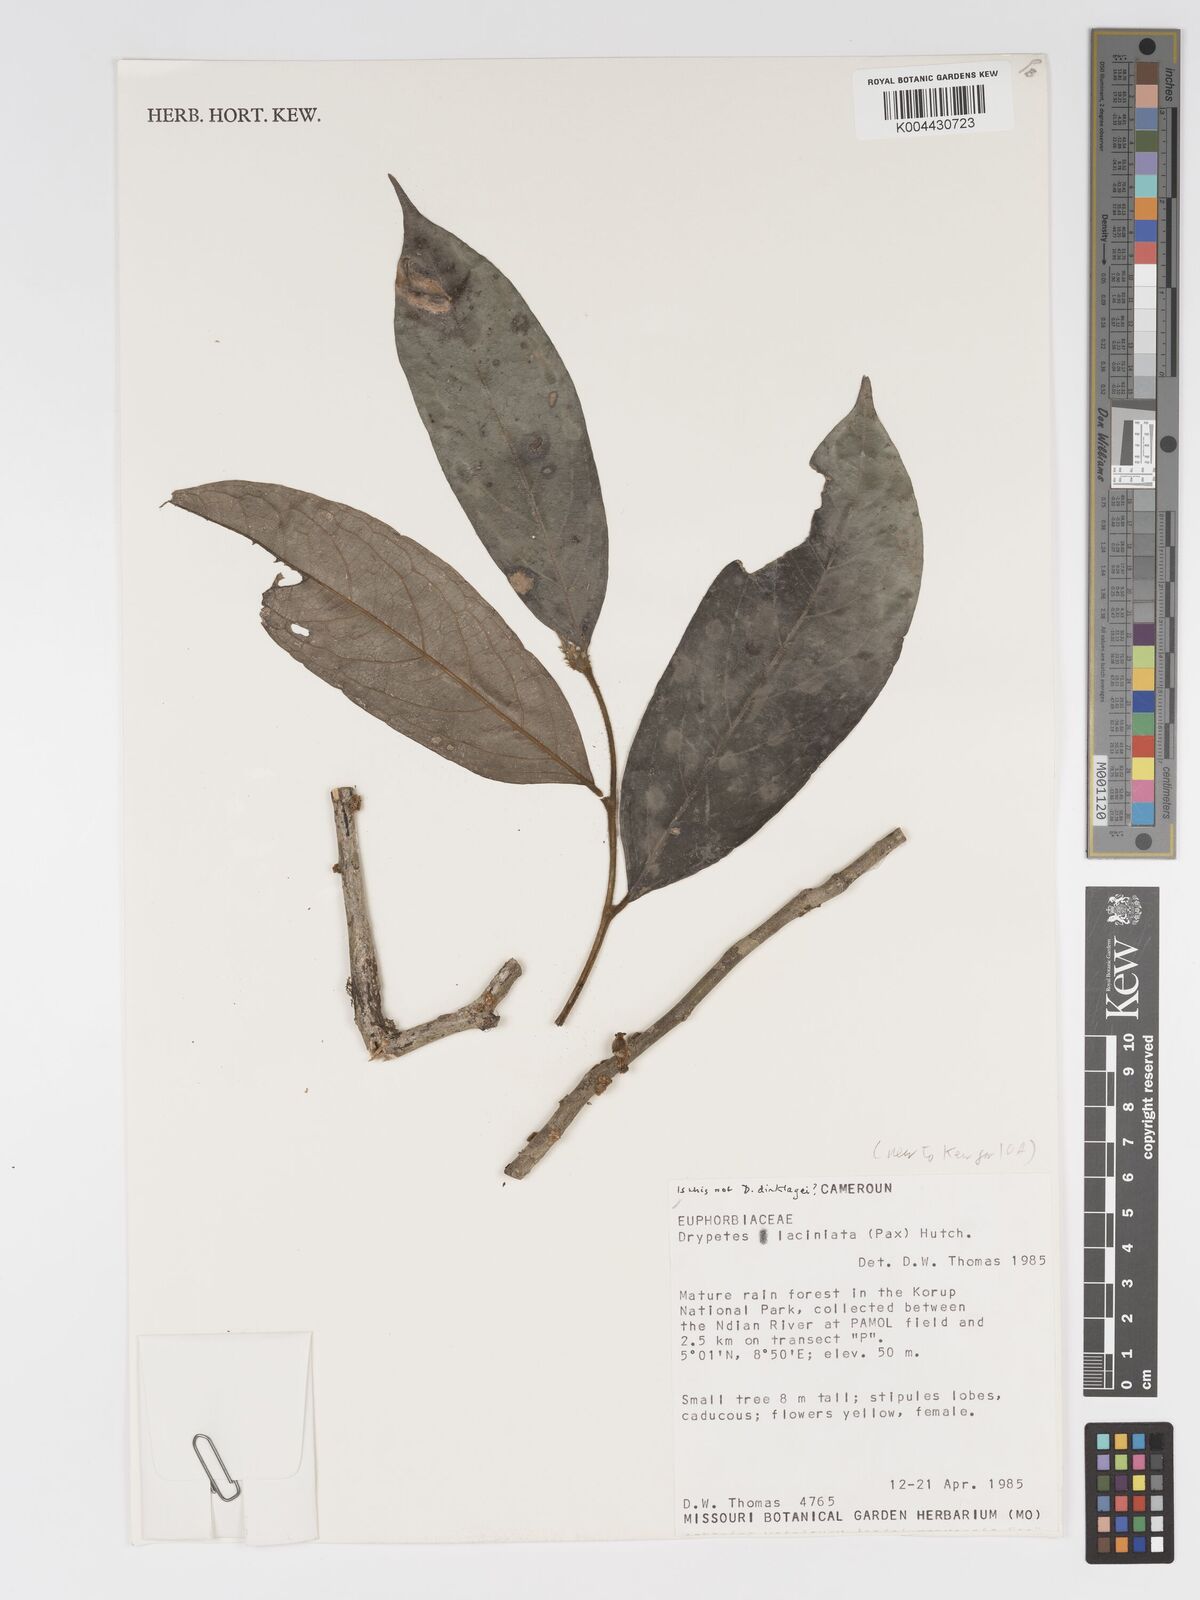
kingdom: Plantae
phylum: Tracheophyta
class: Magnoliopsida
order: Malpighiales
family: Putranjivaceae
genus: Drypetes
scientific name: Drypetes laciniata
